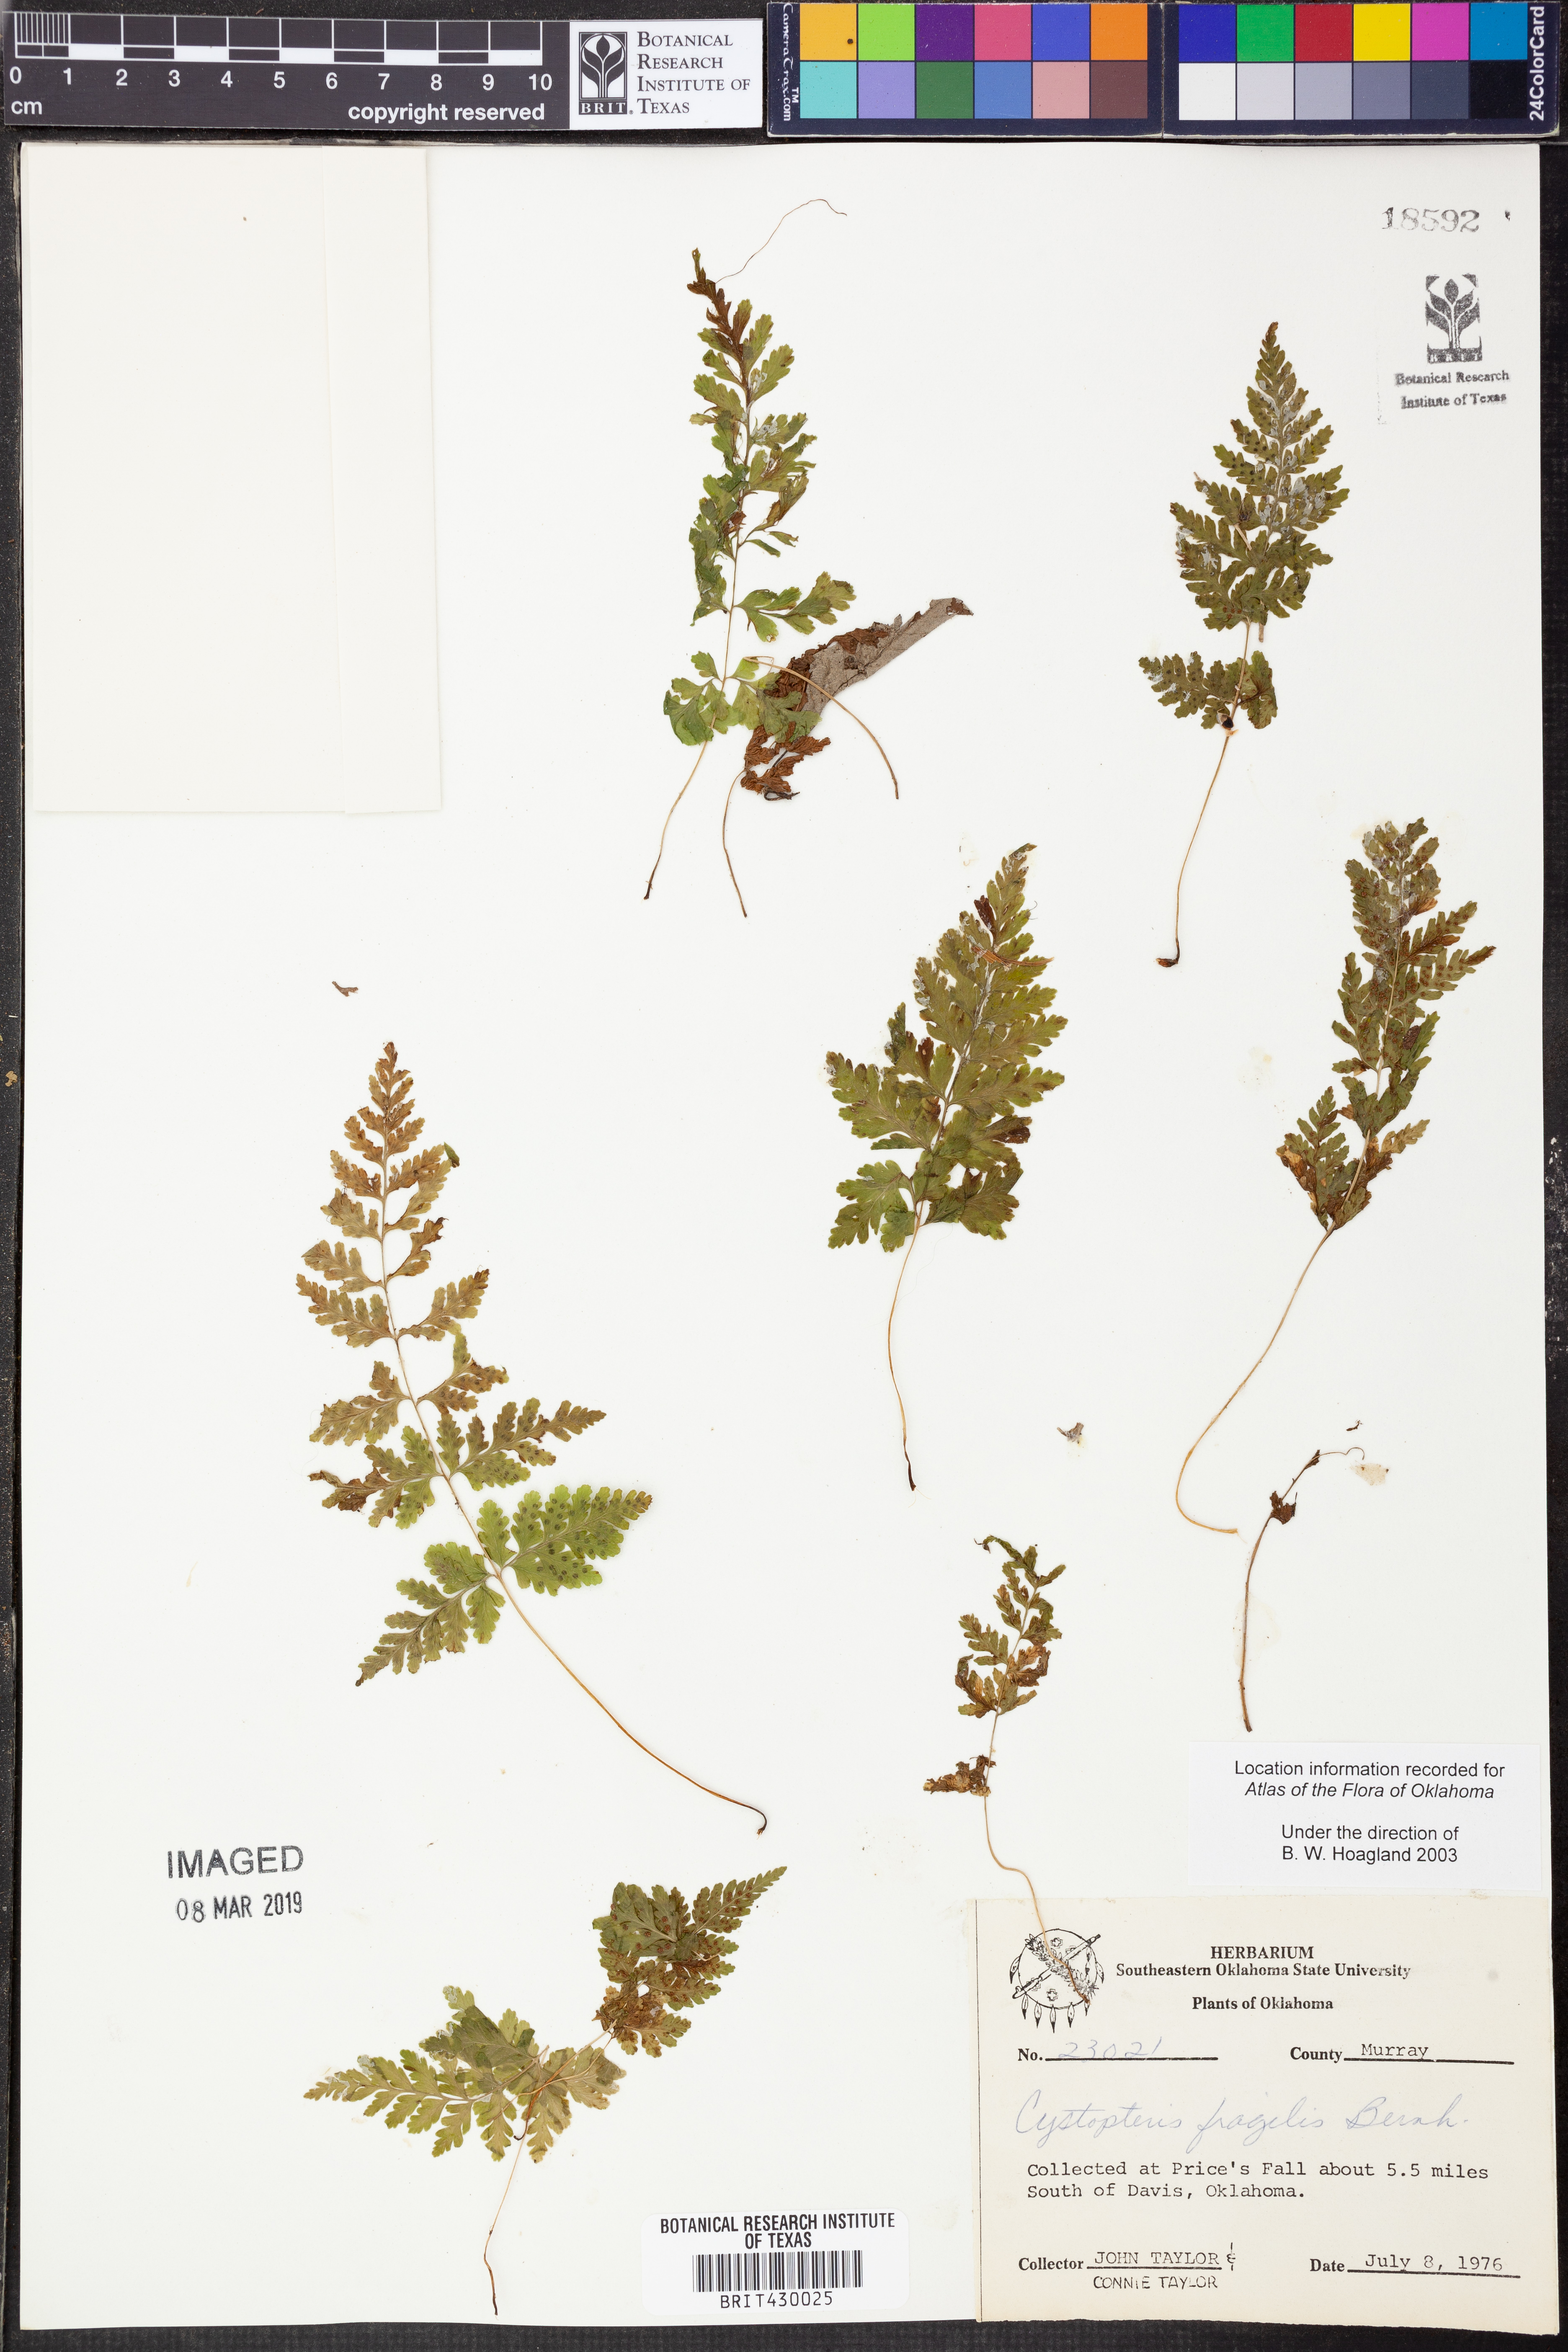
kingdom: Plantae
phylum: Tracheophyta
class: Polypodiopsida
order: Polypodiales
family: Cystopteridaceae
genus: Cystopteris
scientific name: Cystopteris fragilis
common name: Brittle bladder fern
